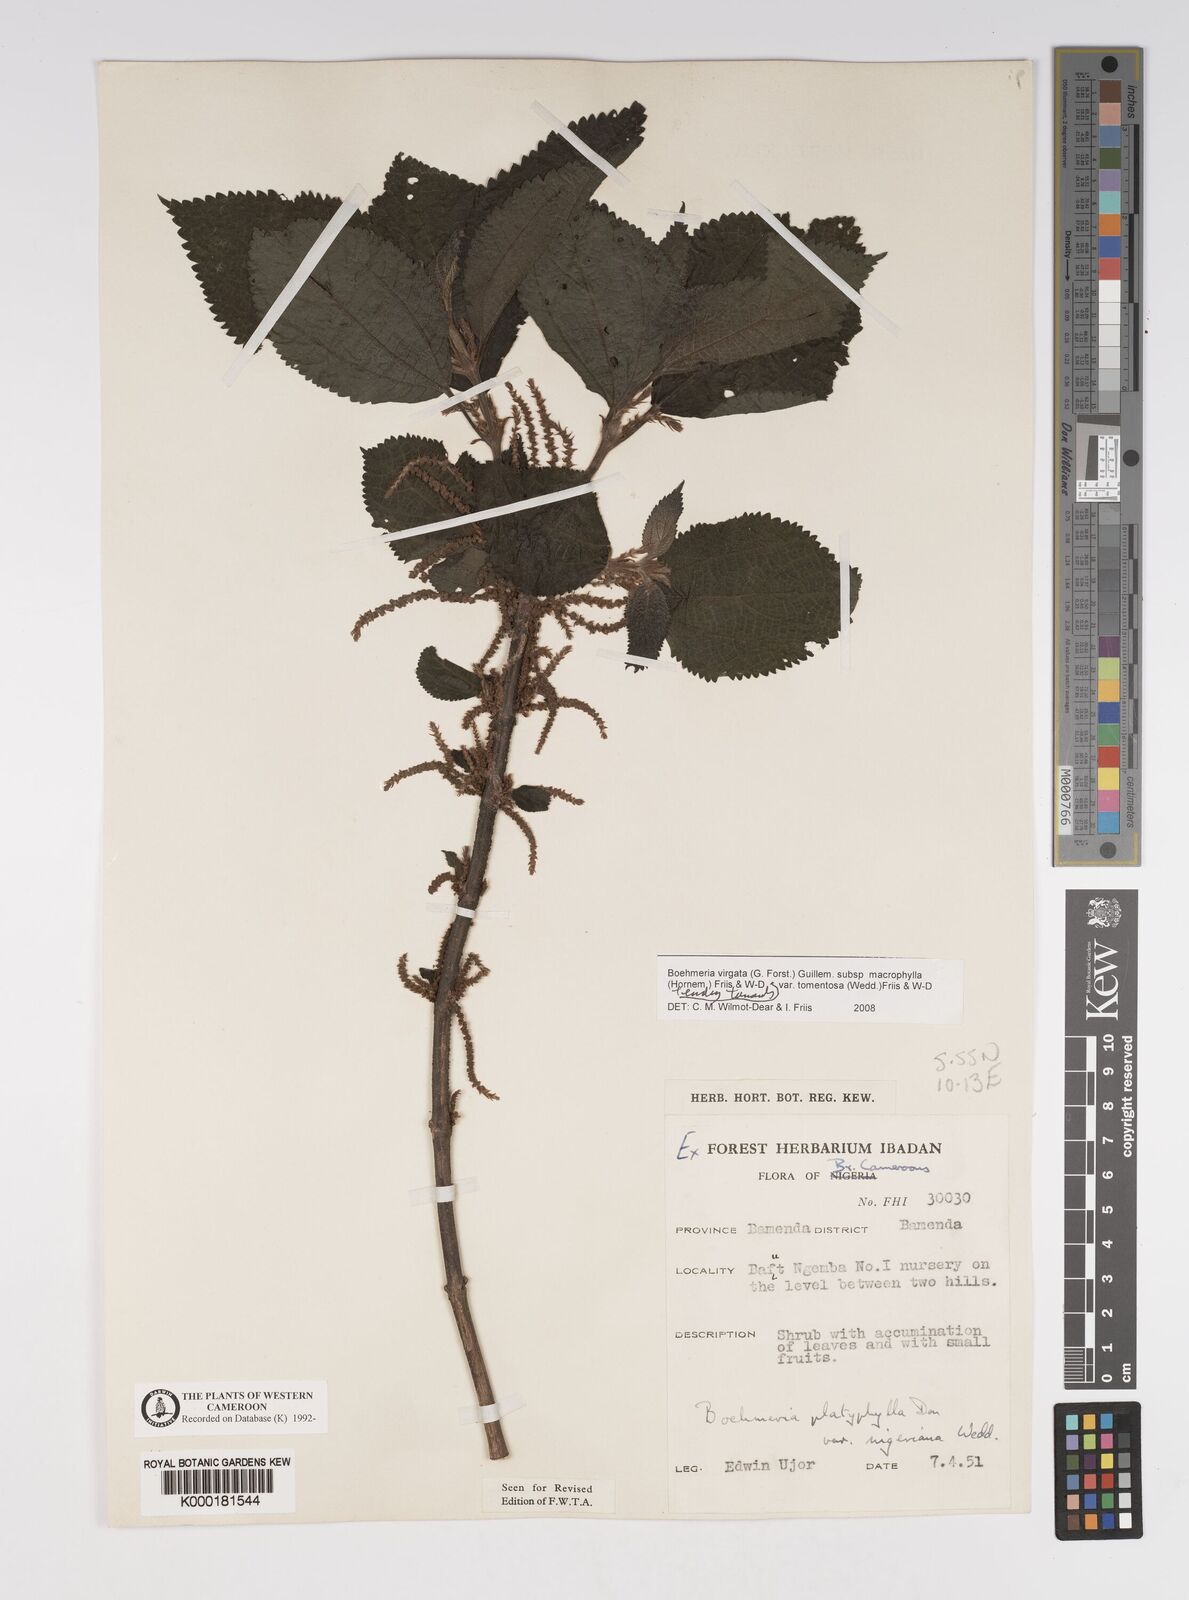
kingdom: Plantae
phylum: Tracheophyta
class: Magnoliopsida
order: Rosales
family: Urticaceae
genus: Boehmeria
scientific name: Boehmeria virgata
